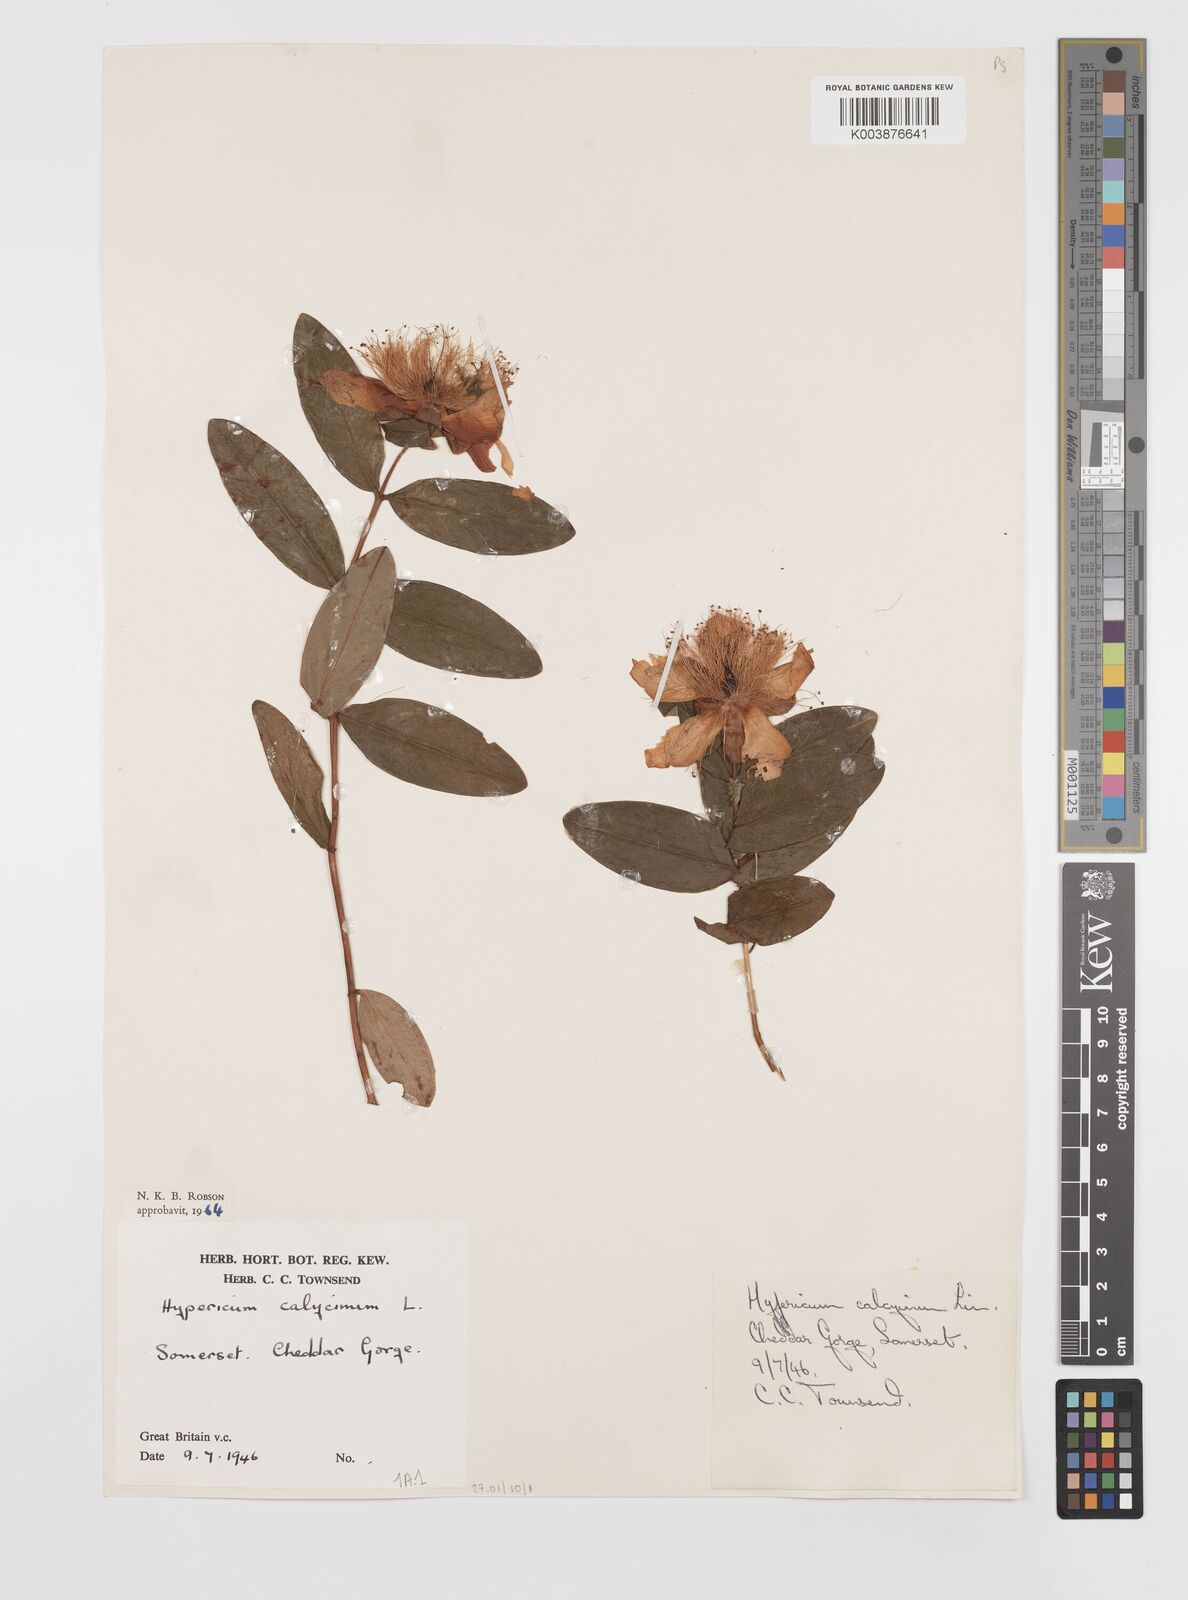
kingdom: Plantae
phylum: Tracheophyta
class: Magnoliopsida
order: Malpighiales
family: Hypericaceae
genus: Hypericum
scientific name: Hypericum calycinum
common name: Rose-of-sharon
